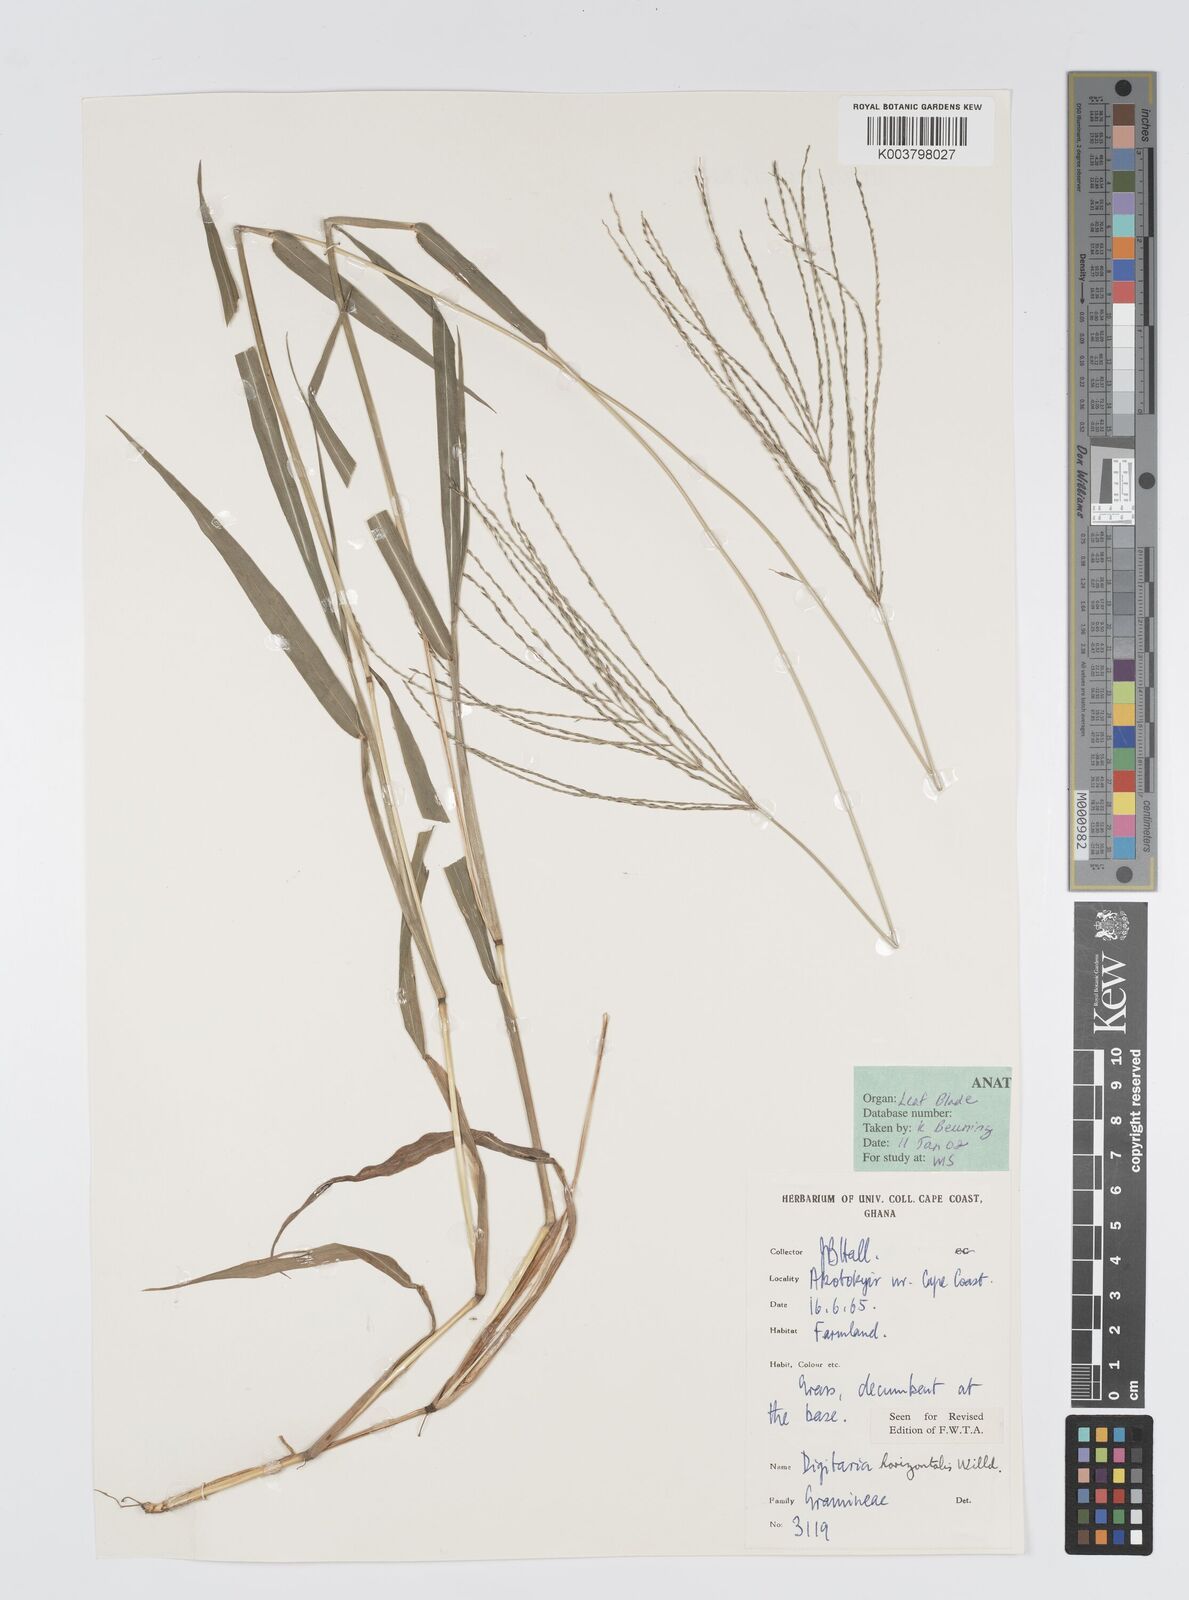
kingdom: Plantae
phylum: Tracheophyta
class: Liliopsida
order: Poales
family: Poaceae
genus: Digitaria
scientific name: Digitaria horizontalis
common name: Jamaican crabgrass
